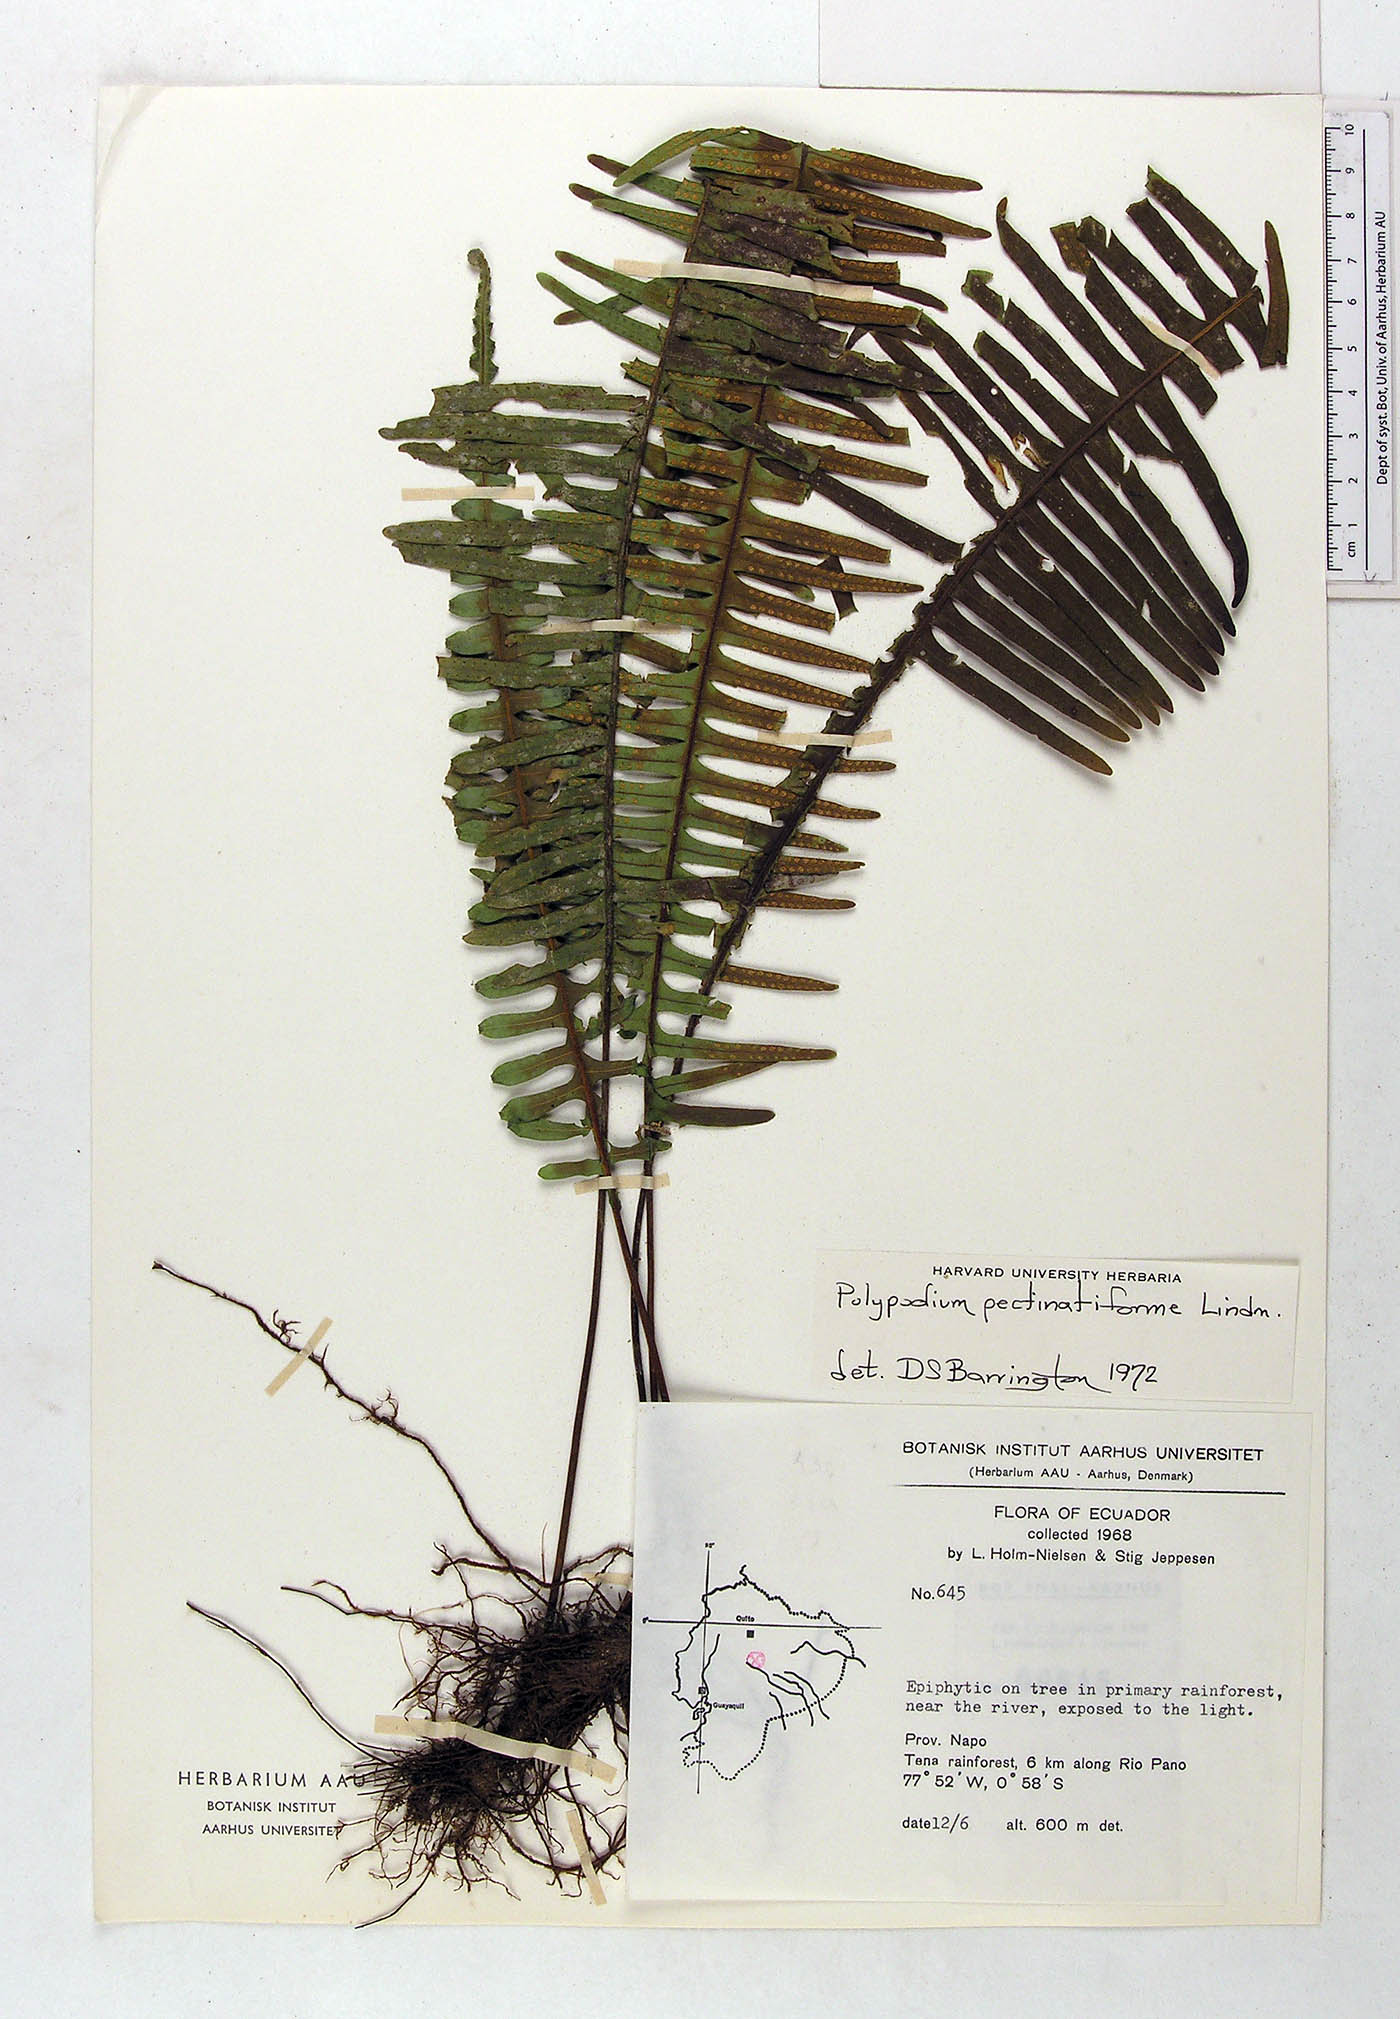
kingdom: Plantae
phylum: Tracheophyta
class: Polypodiopsida
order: Polypodiales
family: Polypodiaceae
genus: Pecluma
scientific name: Pecluma pectinatiformis
